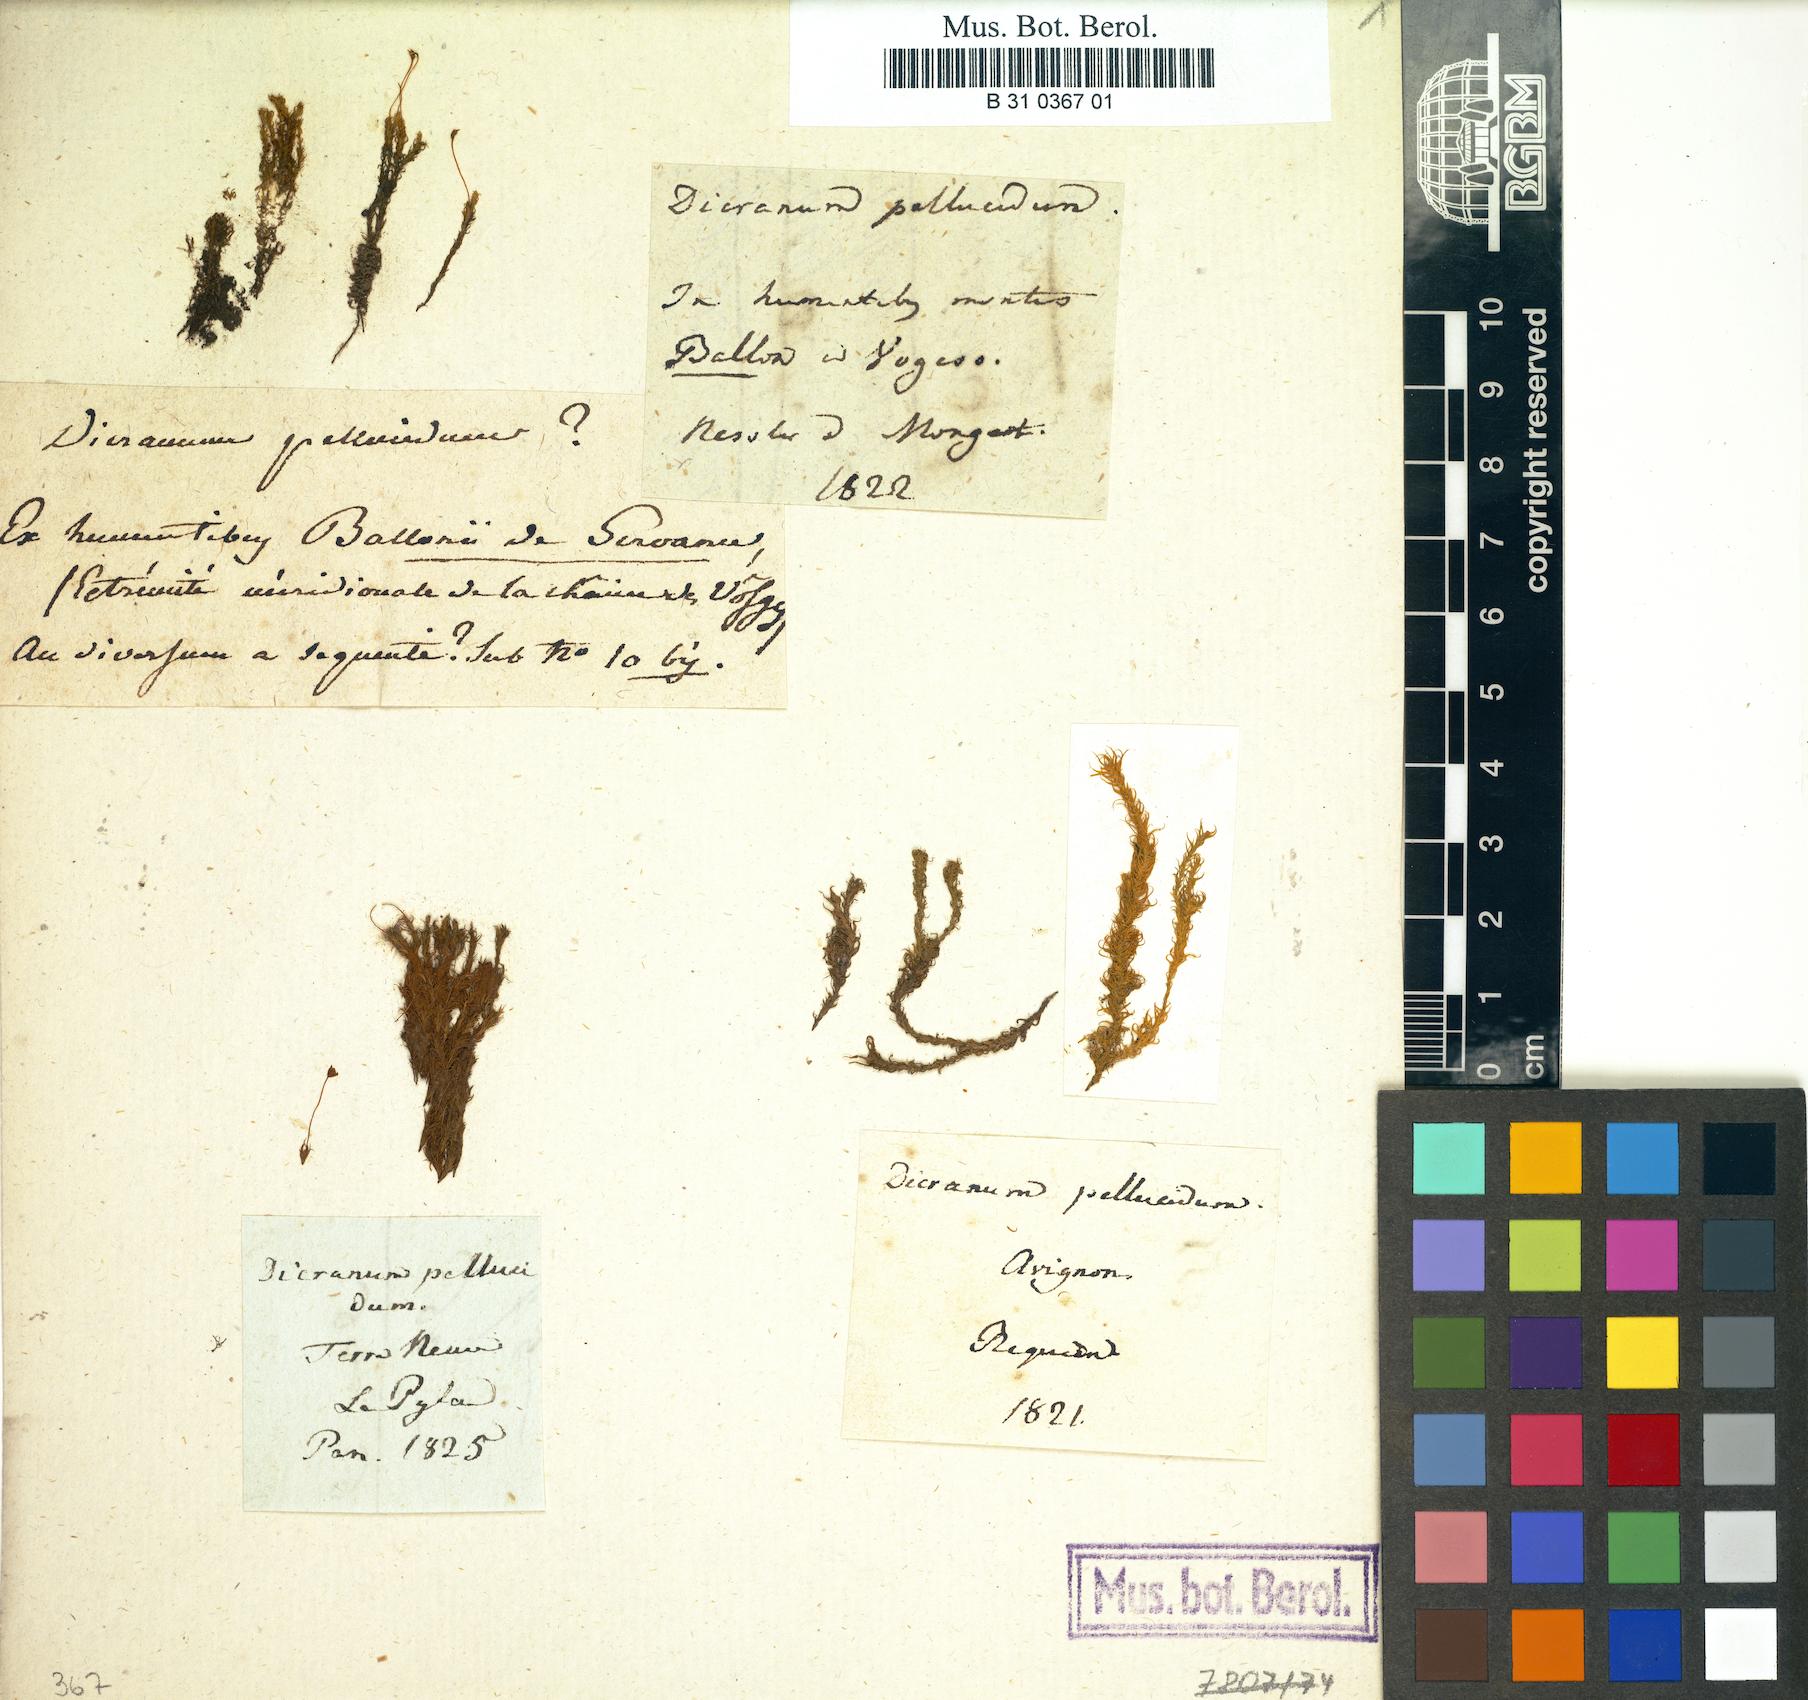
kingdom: Plantae
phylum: Bryophyta
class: Bryopsida
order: Dicranales
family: Aongstroemiaceae
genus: Dichodontium
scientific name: Dichodontium pellucidum
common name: Transparent fork moss
